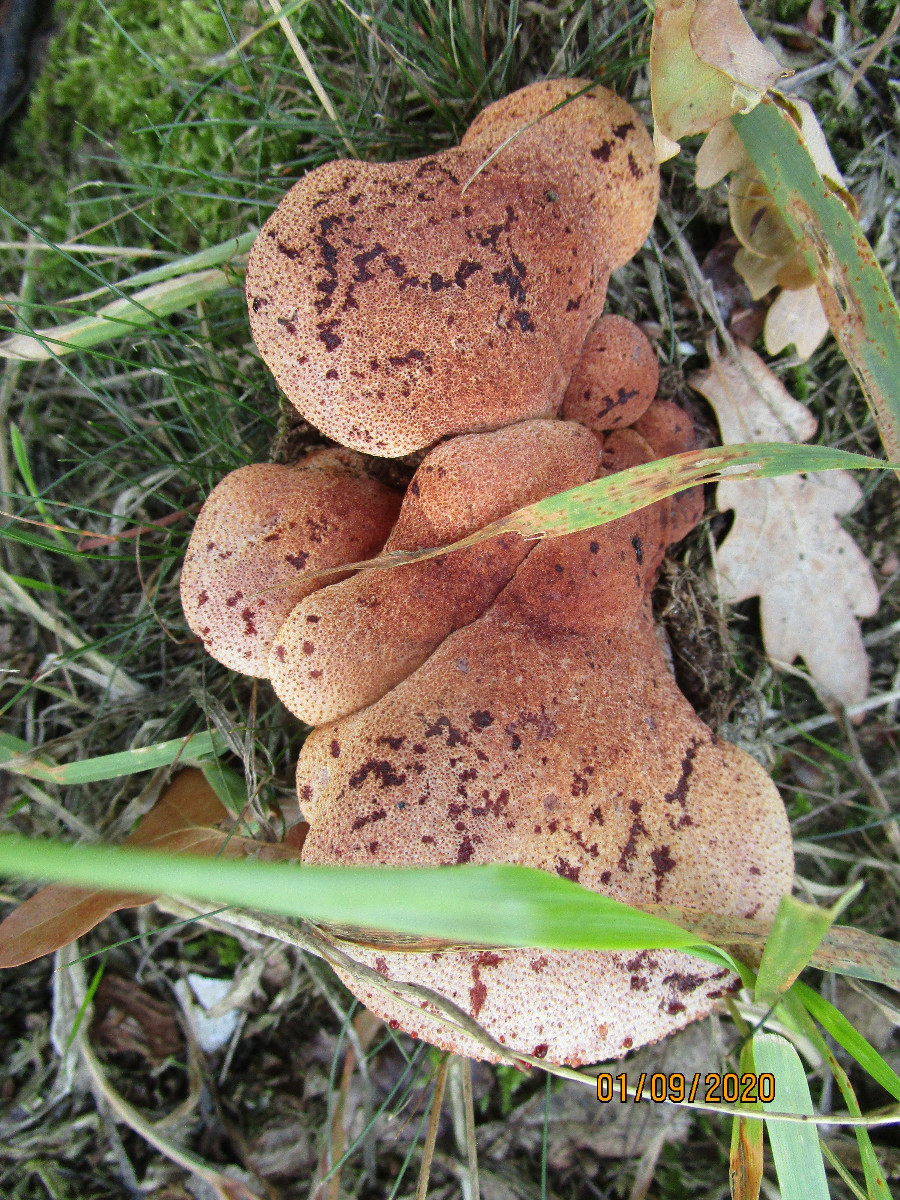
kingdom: Fungi
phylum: Basidiomycota
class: Agaricomycetes
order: Agaricales
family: Fistulinaceae
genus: Fistulina
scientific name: Fistulina hepatica
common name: oksetunge
